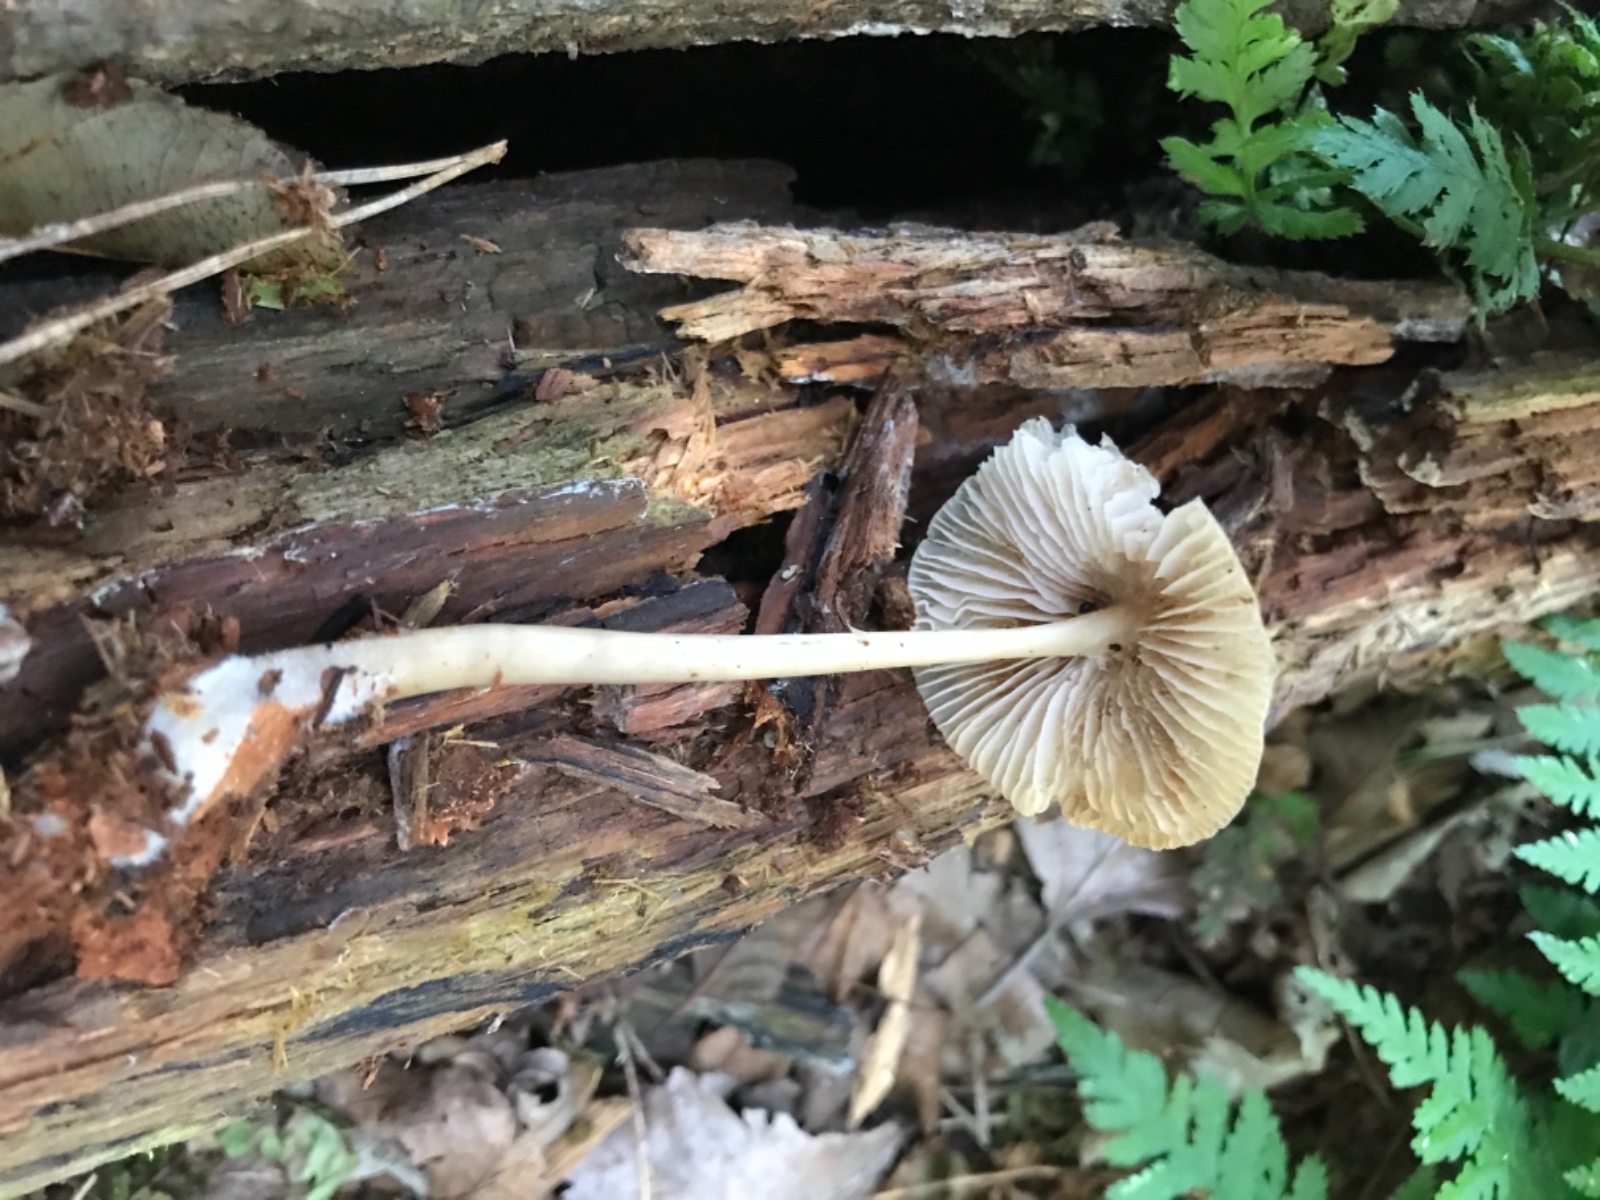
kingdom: Fungi
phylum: Basidiomycota
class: Agaricomycetes
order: Agaricales
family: Mycenaceae
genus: Mycena
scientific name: Mycena galericulata
